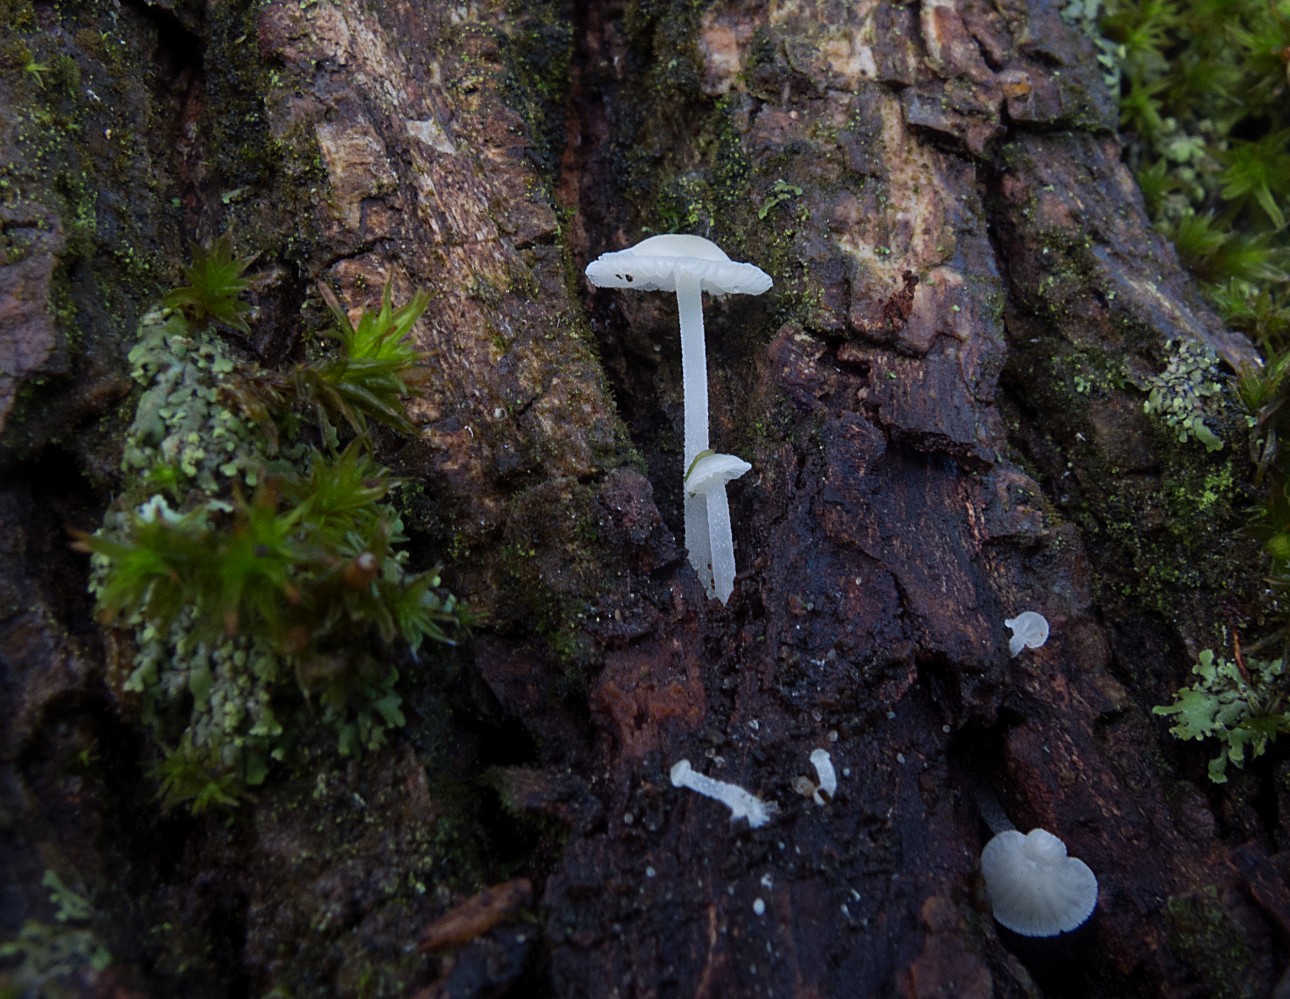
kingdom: Fungi
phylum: Basidiomycota
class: Agaricomycetes
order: Agaricales
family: Porotheleaceae
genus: Phloeomana
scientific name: Phloeomana minutula
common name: bleg huesvamp
